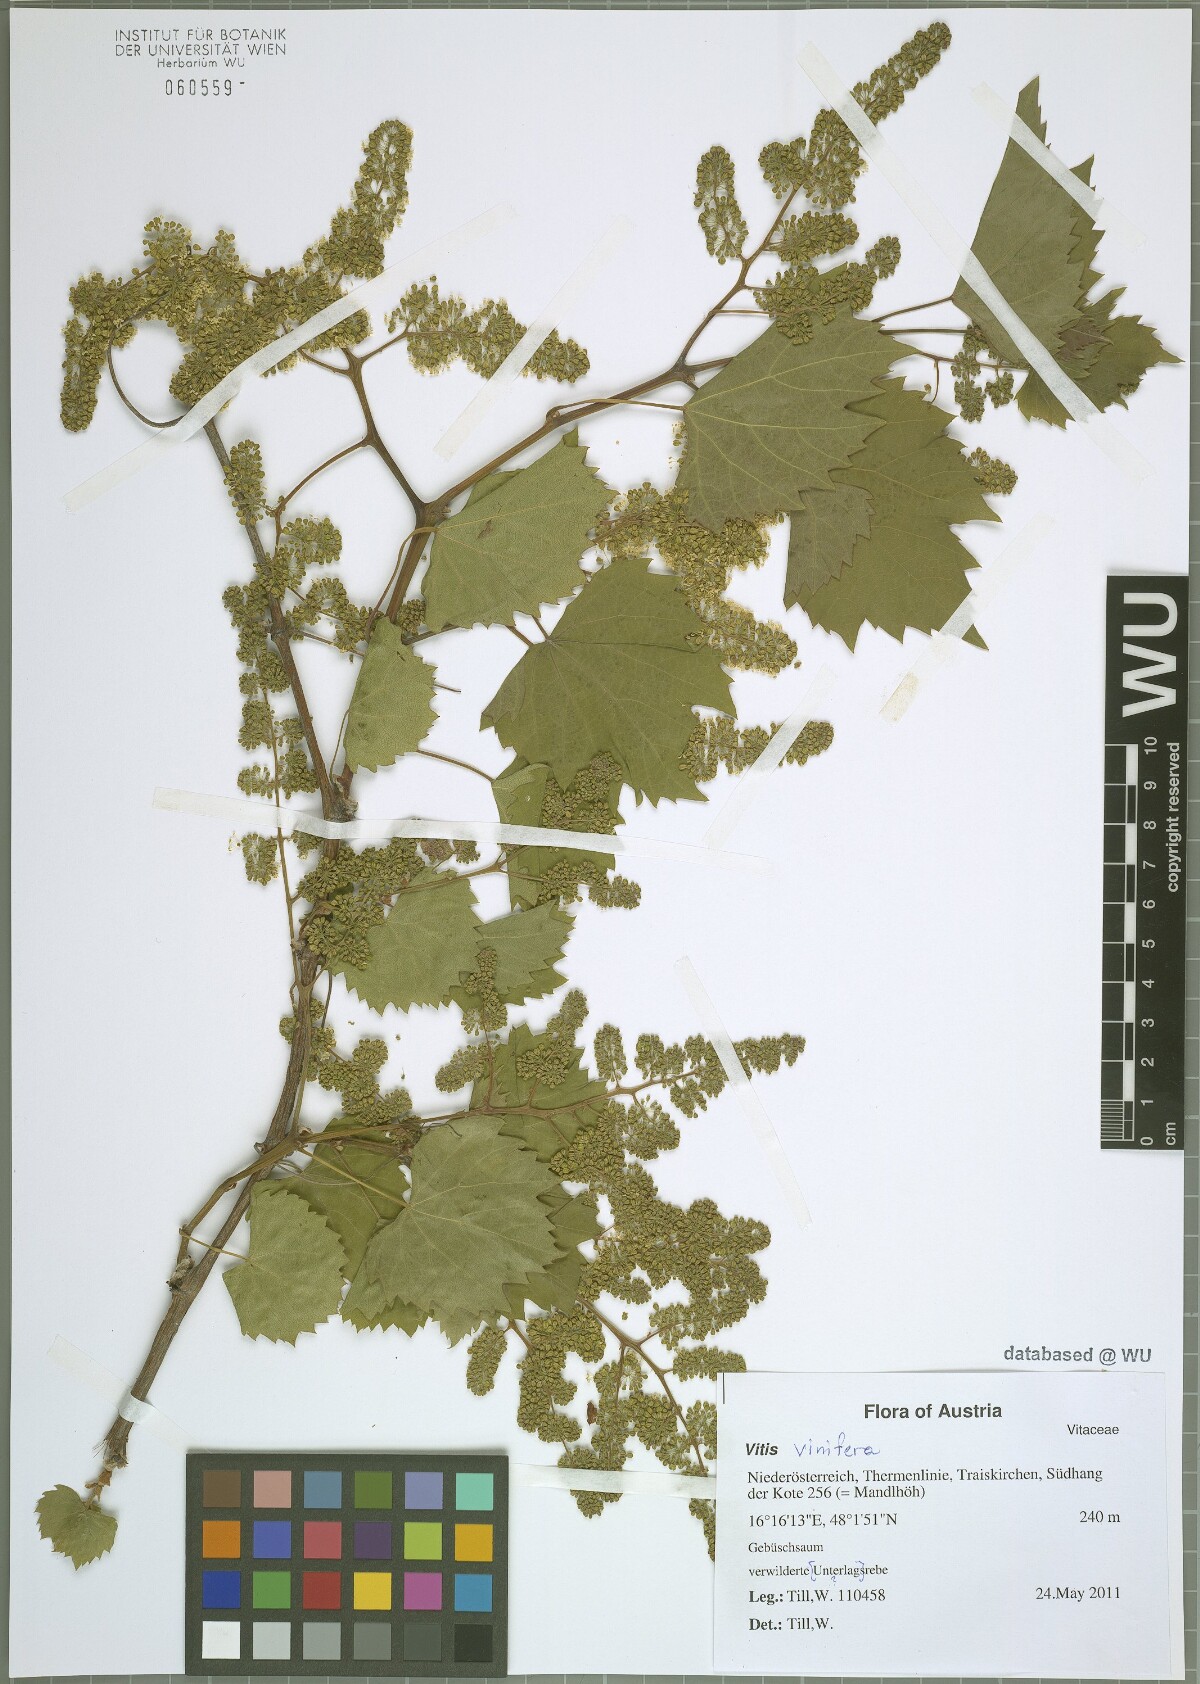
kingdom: Plantae
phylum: Tracheophyta
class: Magnoliopsida
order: Vitales
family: Vitaceae
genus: Vitis
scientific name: Vitis vinifera
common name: Grape-vine
